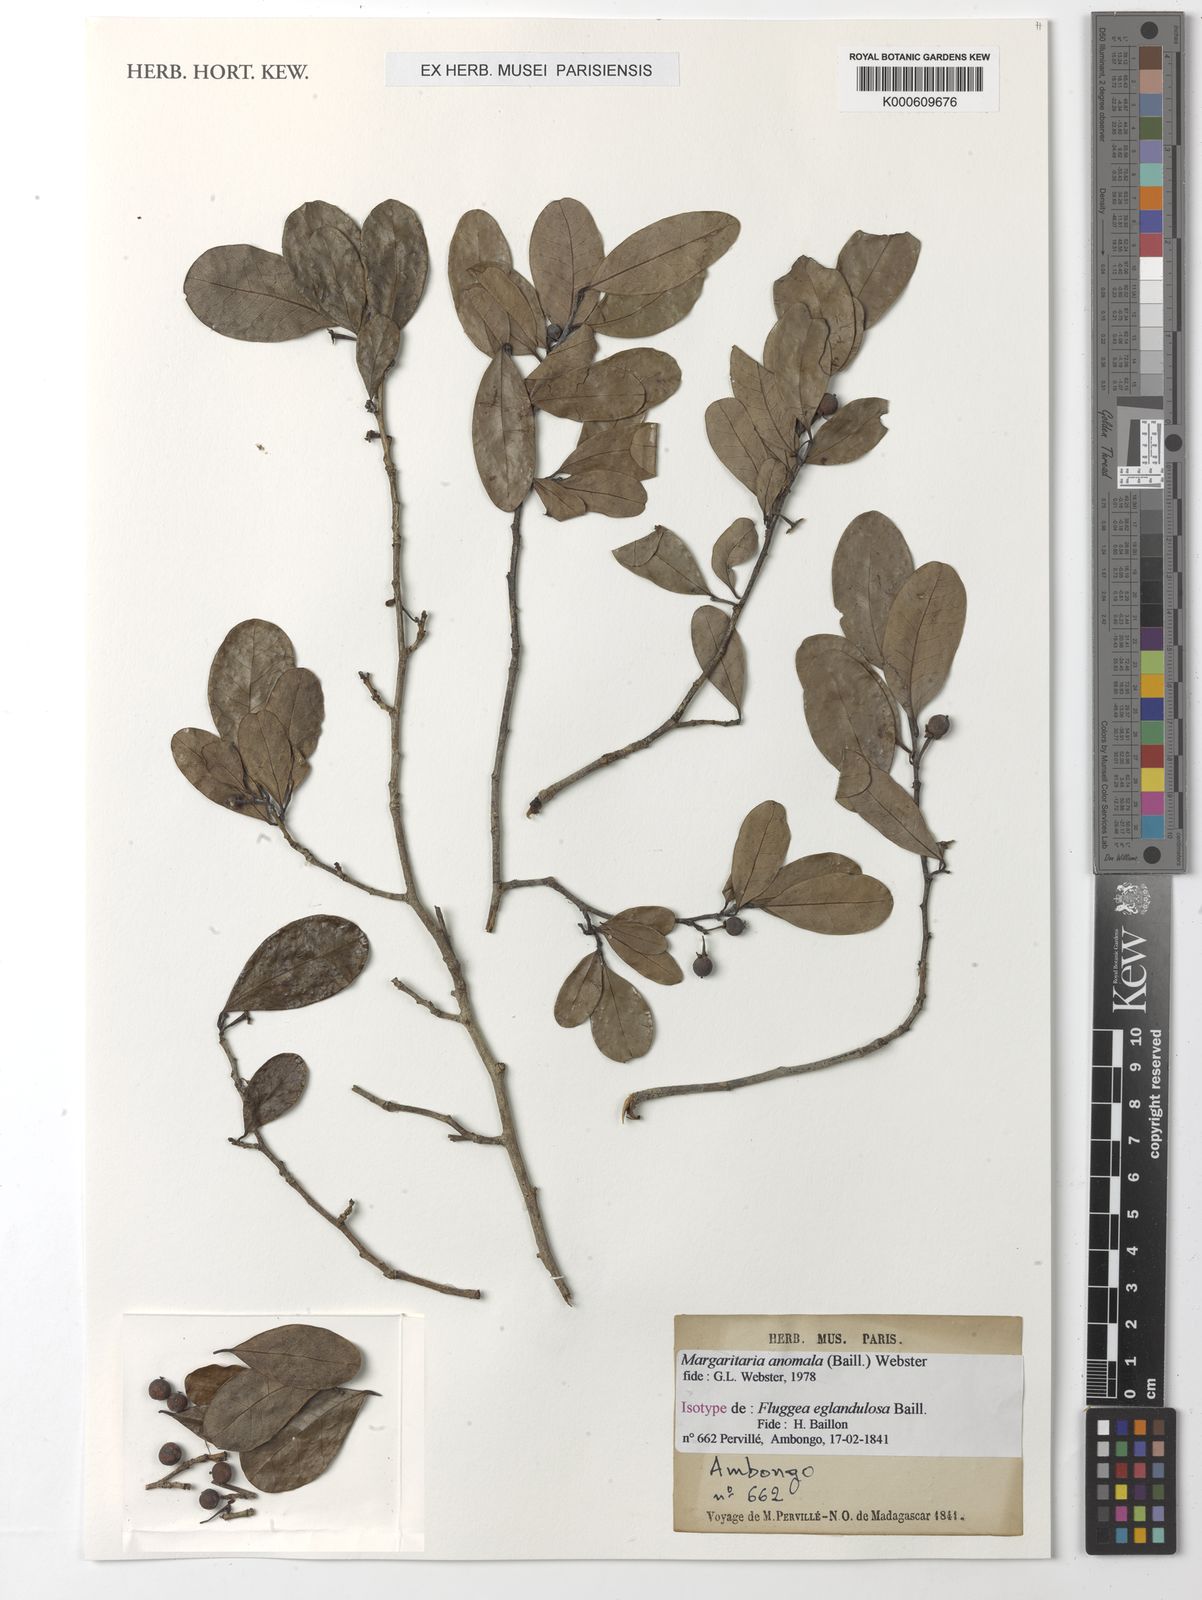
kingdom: Plantae
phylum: Tracheophyta
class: Magnoliopsida
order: Malpighiales
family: Phyllanthaceae
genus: Margaritaria
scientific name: Margaritaria anomala
